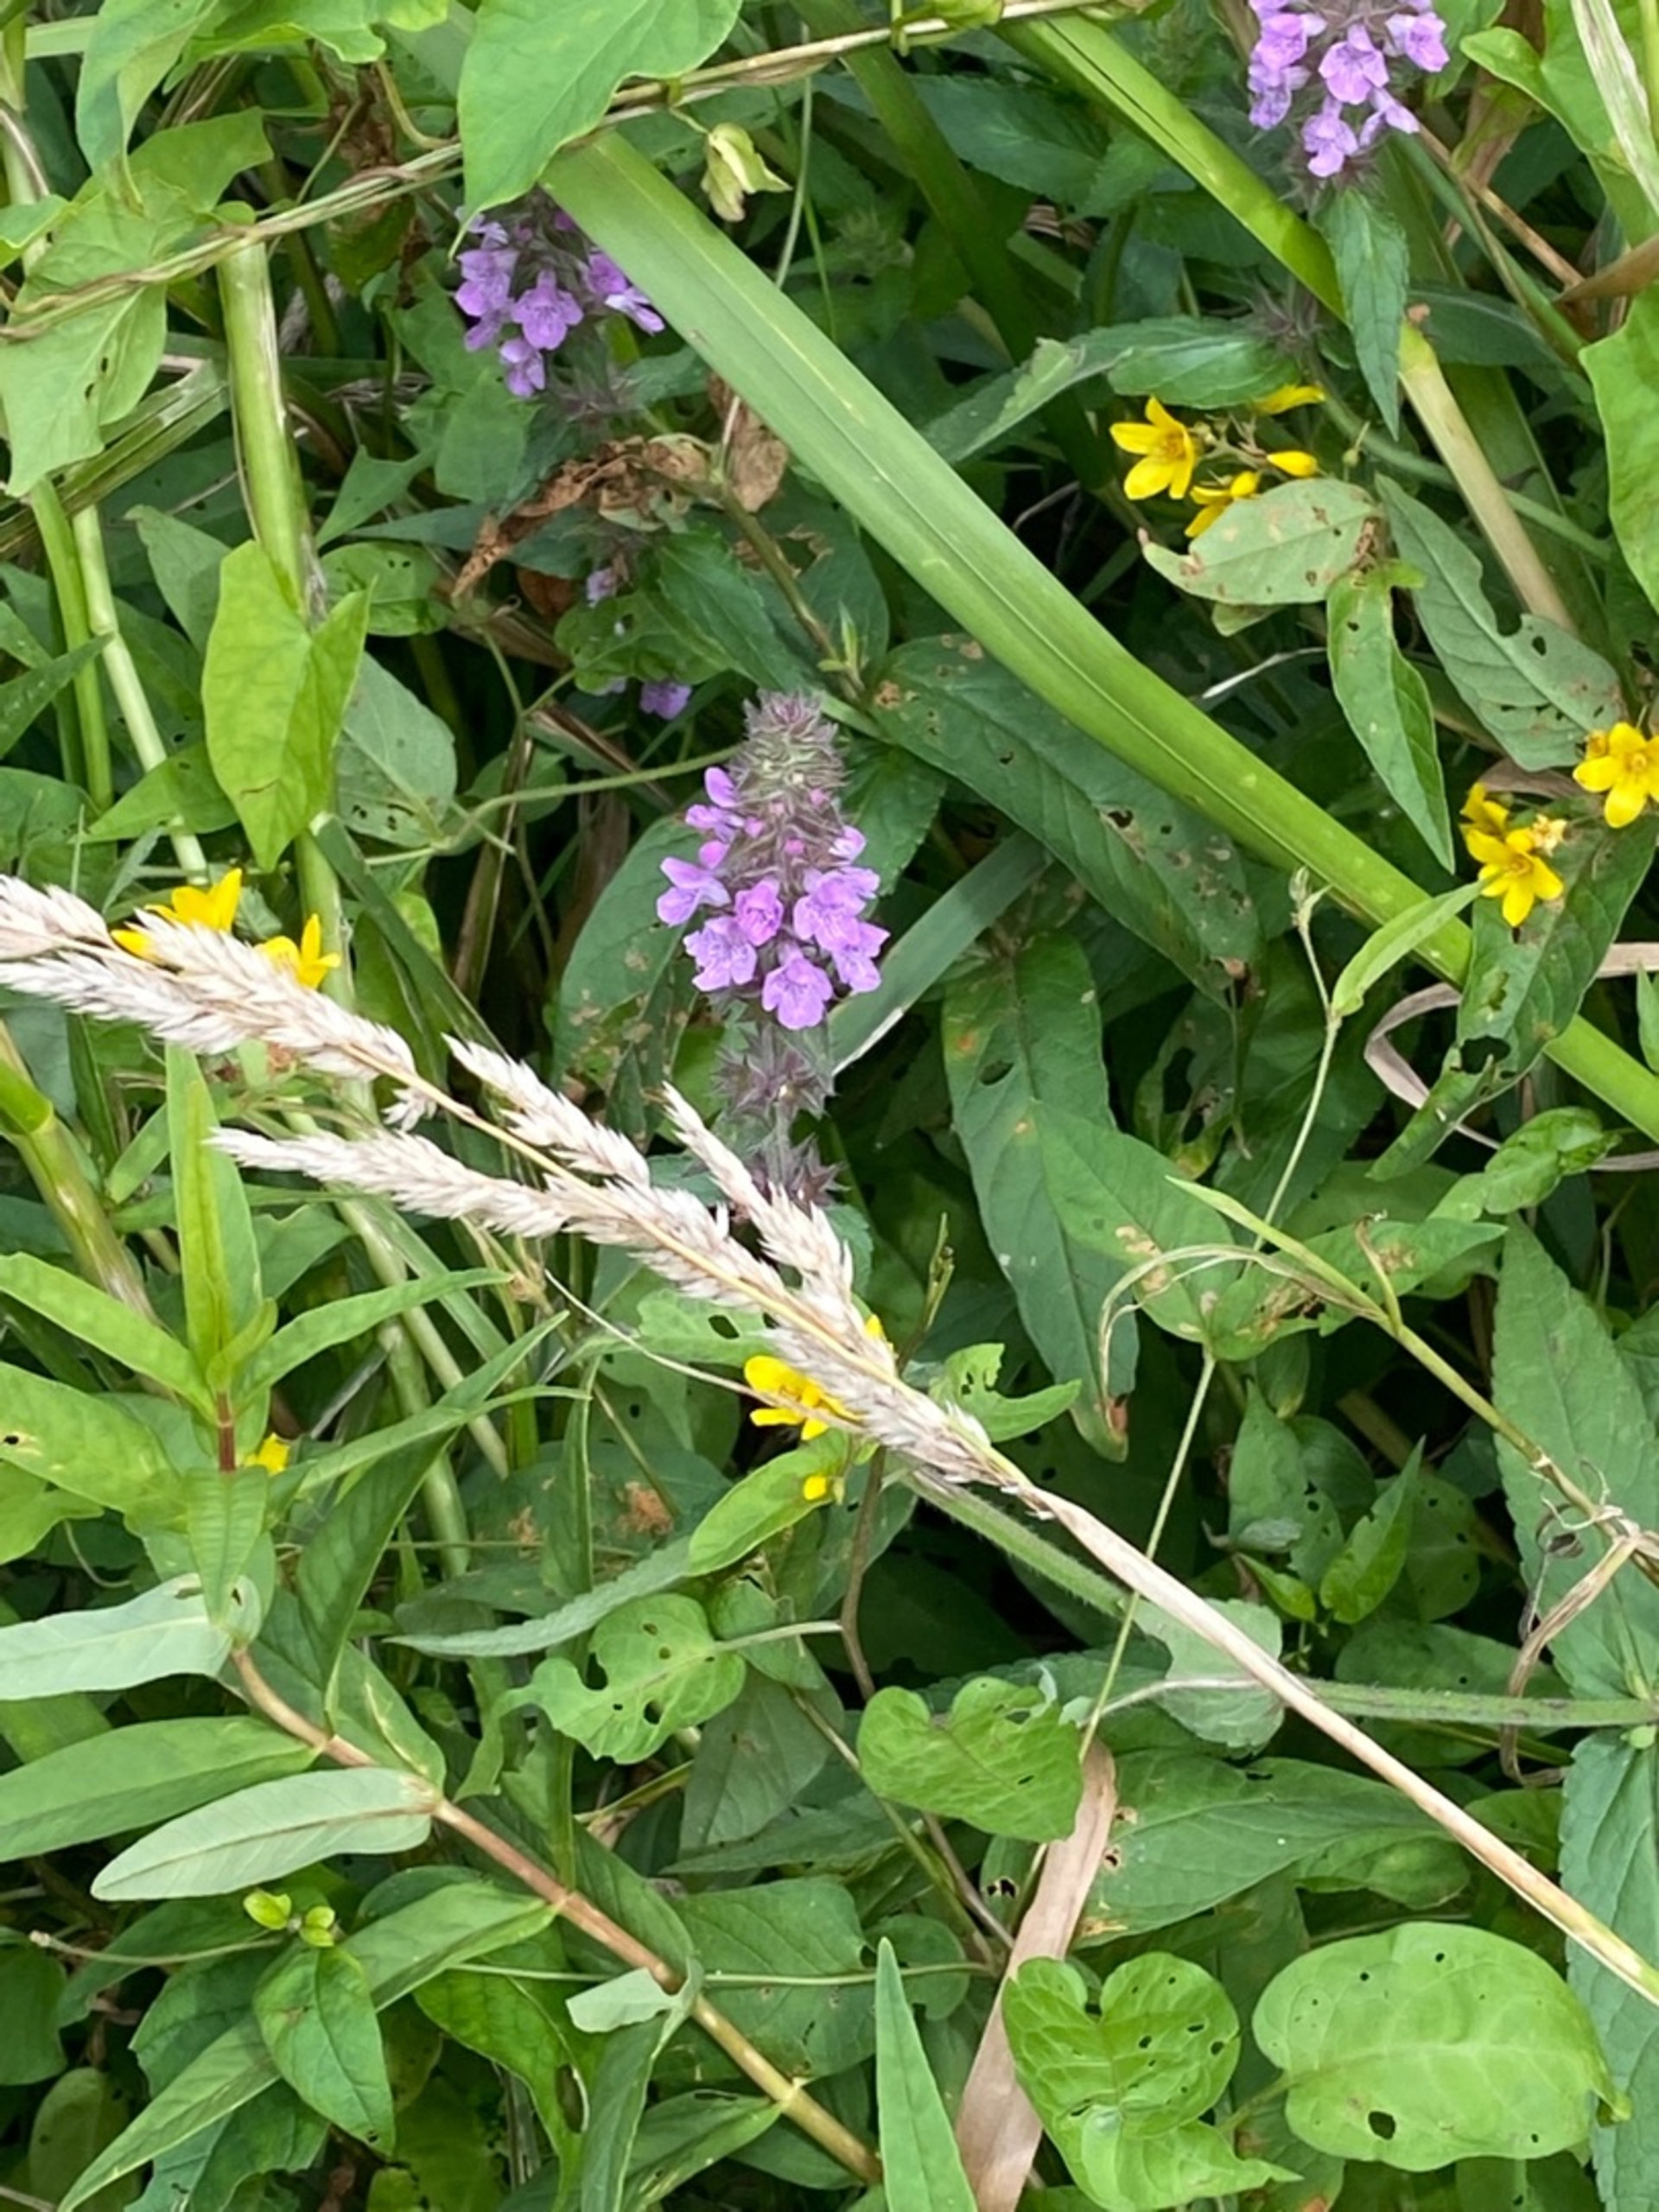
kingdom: Plantae
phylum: Tracheophyta
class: Magnoliopsida
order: Lamiales
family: Lamiaceae
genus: Stachys
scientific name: Stachys palustris
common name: Kær-galtetand
